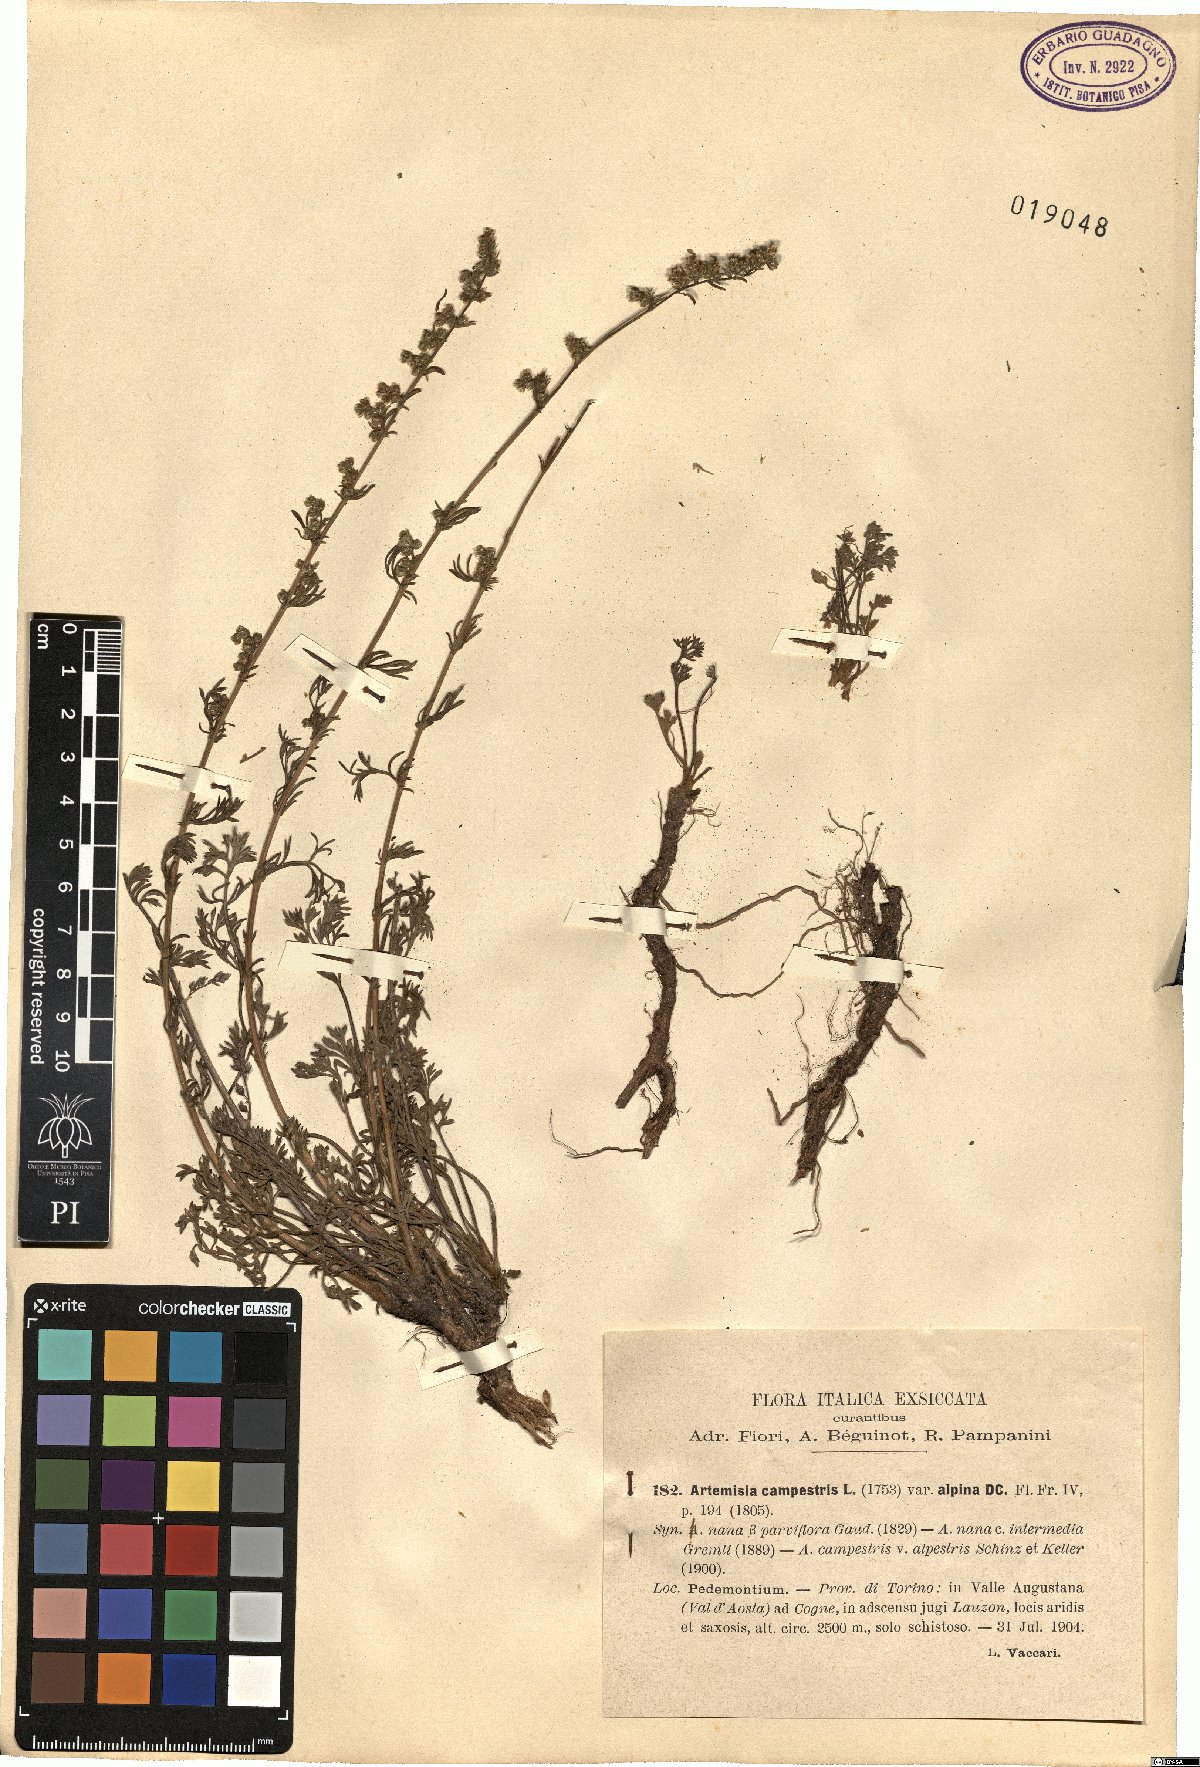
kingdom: Plantae
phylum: Tracheophyta
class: Magnoliopsida
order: Asterales
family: Asteraceae
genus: Artemisia
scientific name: Artemisia campestris
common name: Field wormwood
